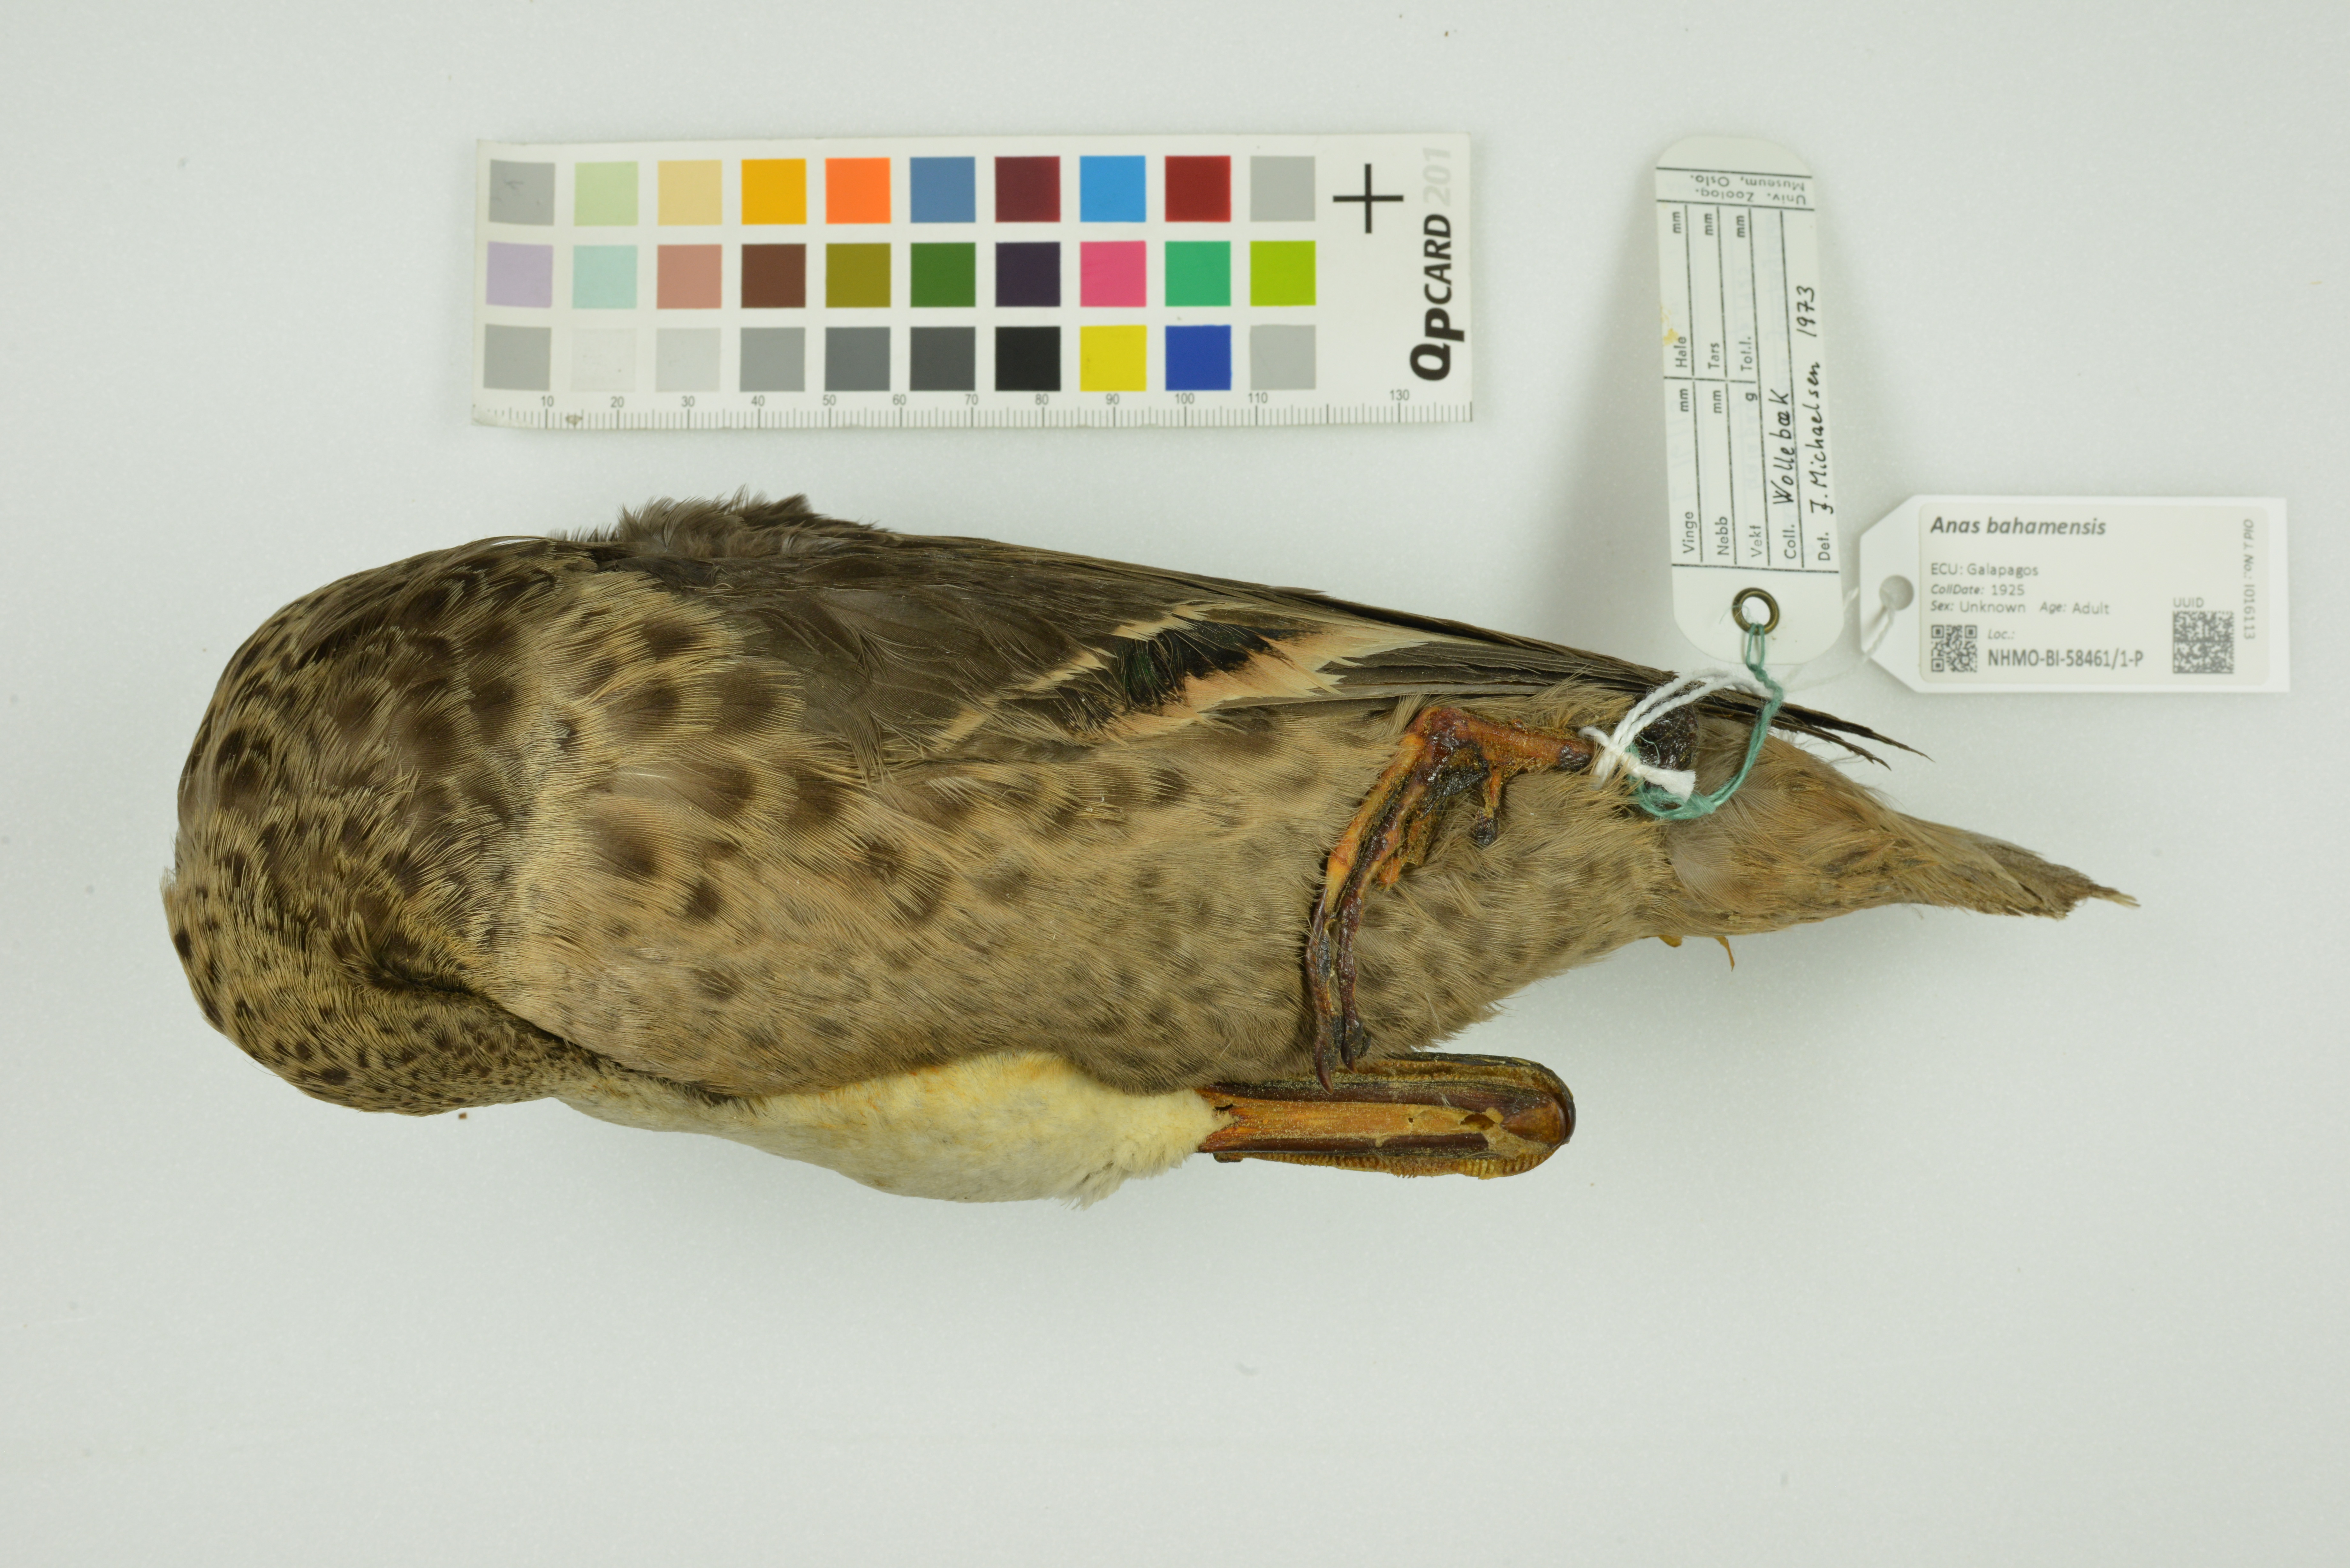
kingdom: Animalia
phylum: Chordata
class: Aves
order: Anseriformes
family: Anatidae
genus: Anas
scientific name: Anas bahamensis
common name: White-cheeked pintail
